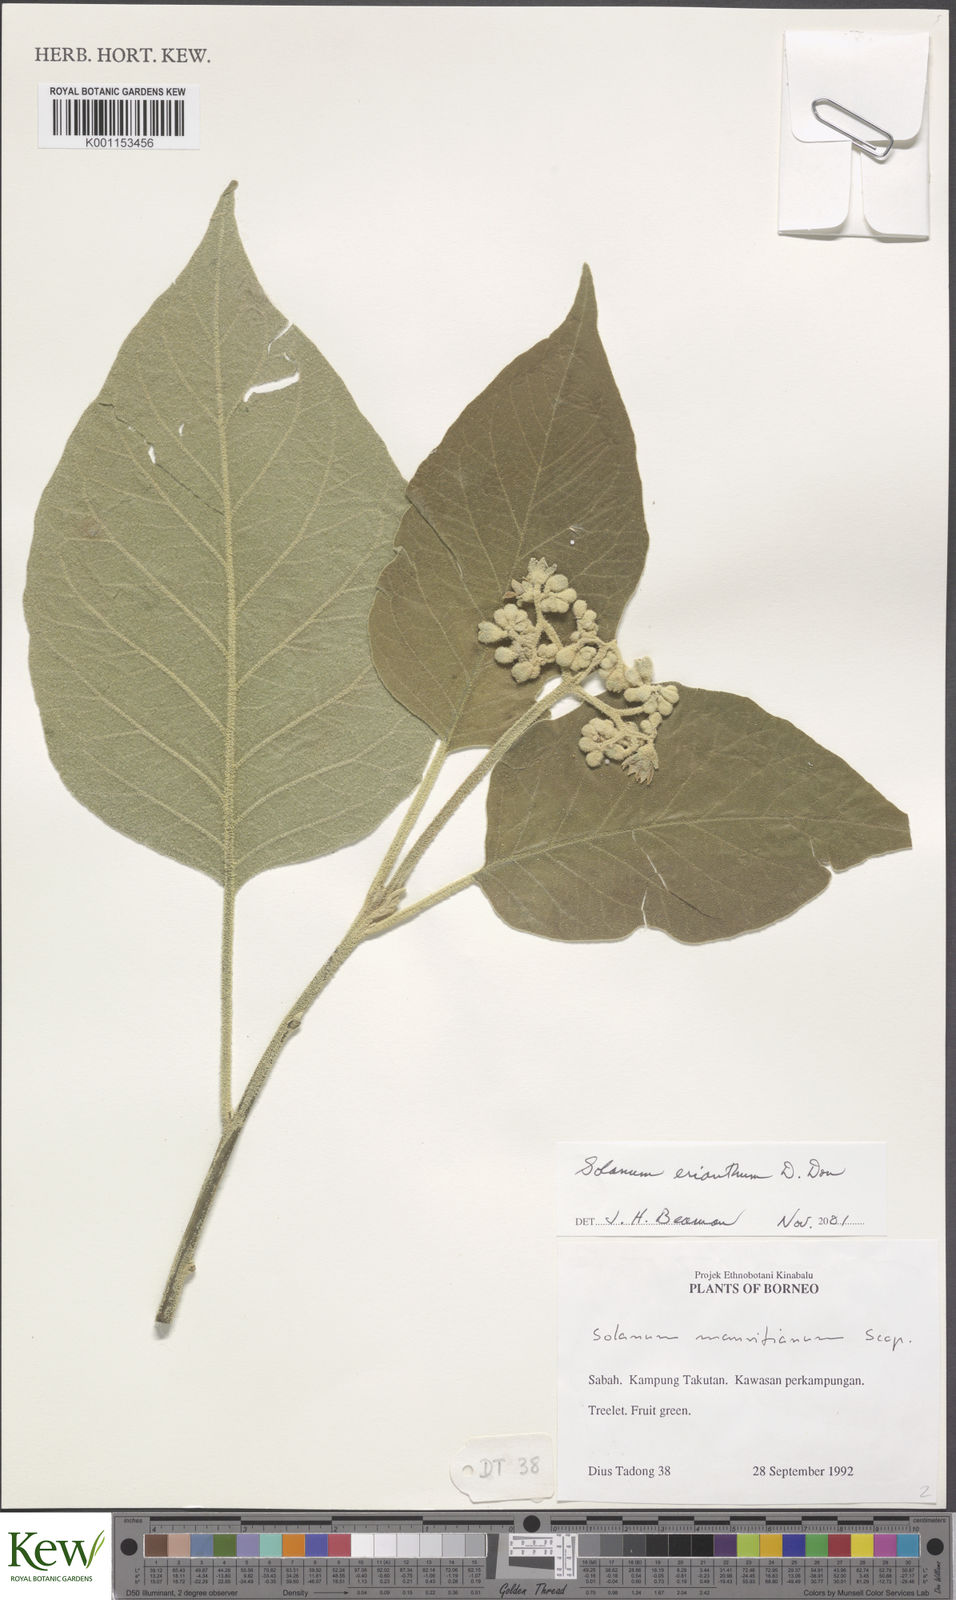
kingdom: Plantae
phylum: Tracheophyta
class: Magnoliopsida
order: Solanales
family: Solanaceae
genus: Solanum
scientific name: Solanum erianthum
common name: Tobacco-tree
